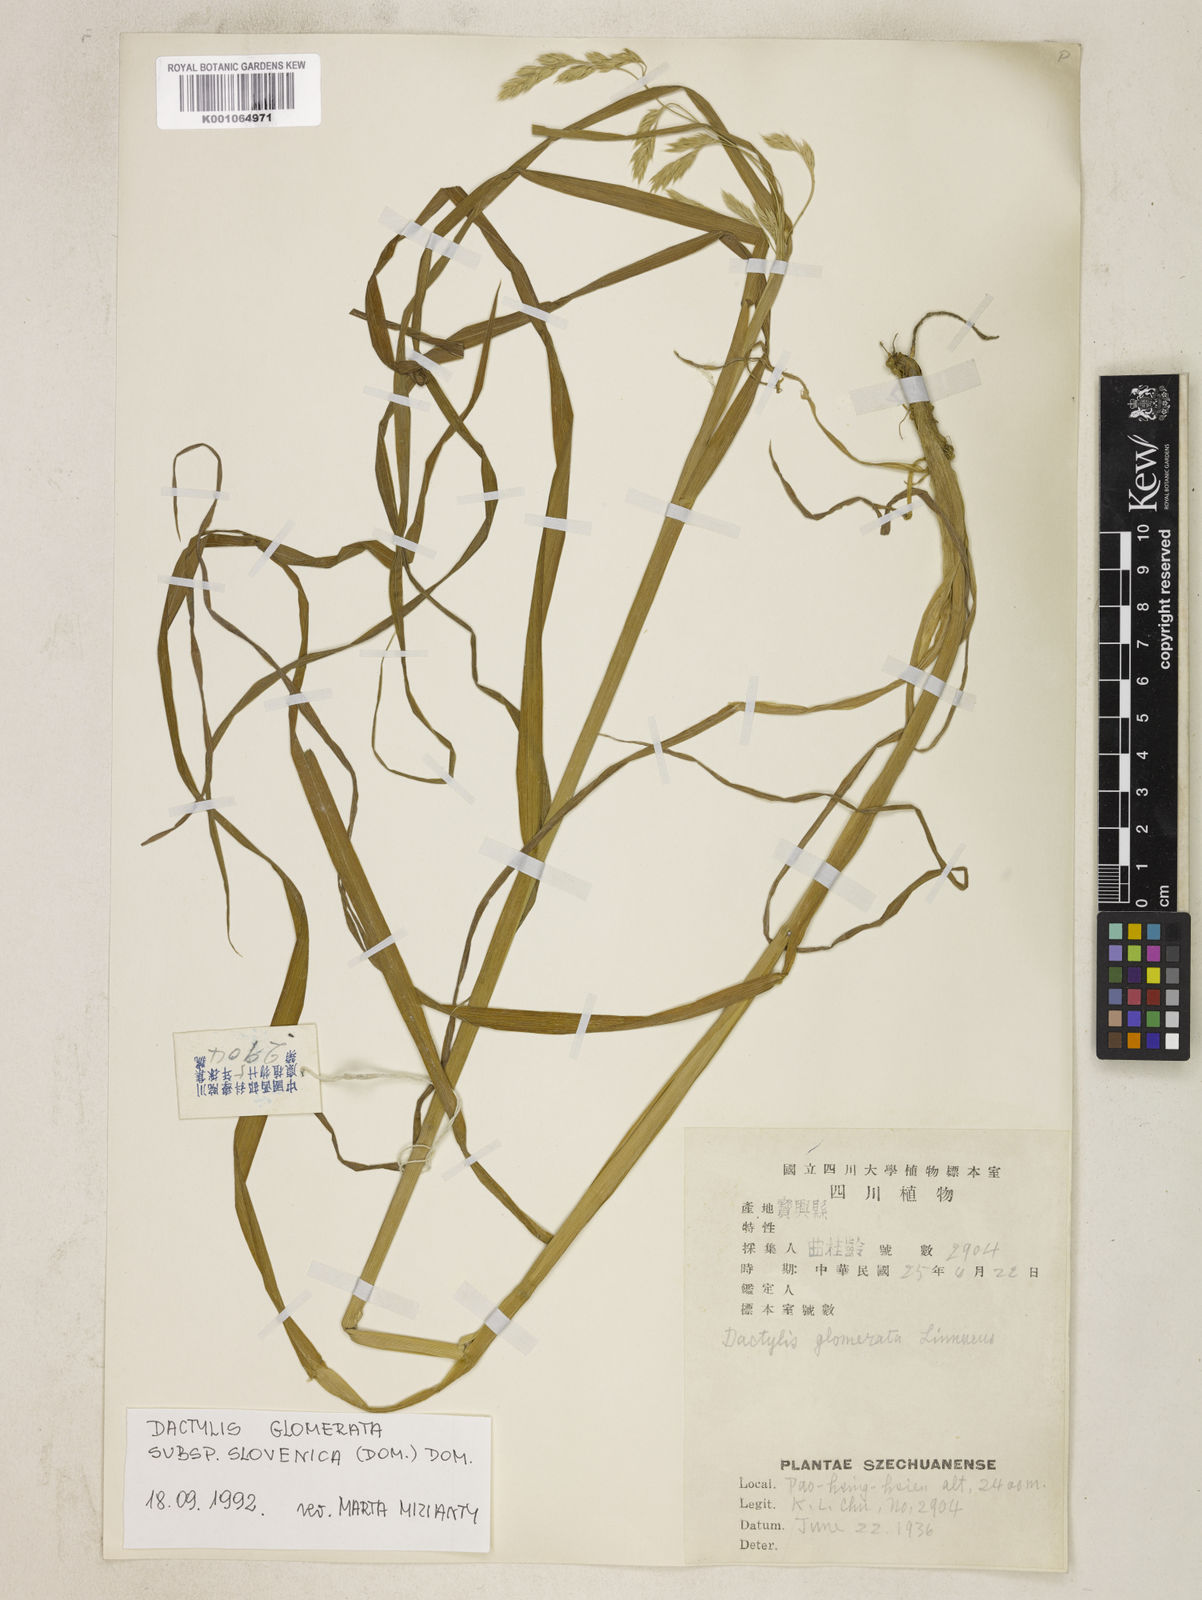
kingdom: Plantae
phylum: Tracheophyta
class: Liliopsida
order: Poales
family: Poaceae
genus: Dactylis
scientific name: Dactylis glomerata
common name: Orchardgrass
